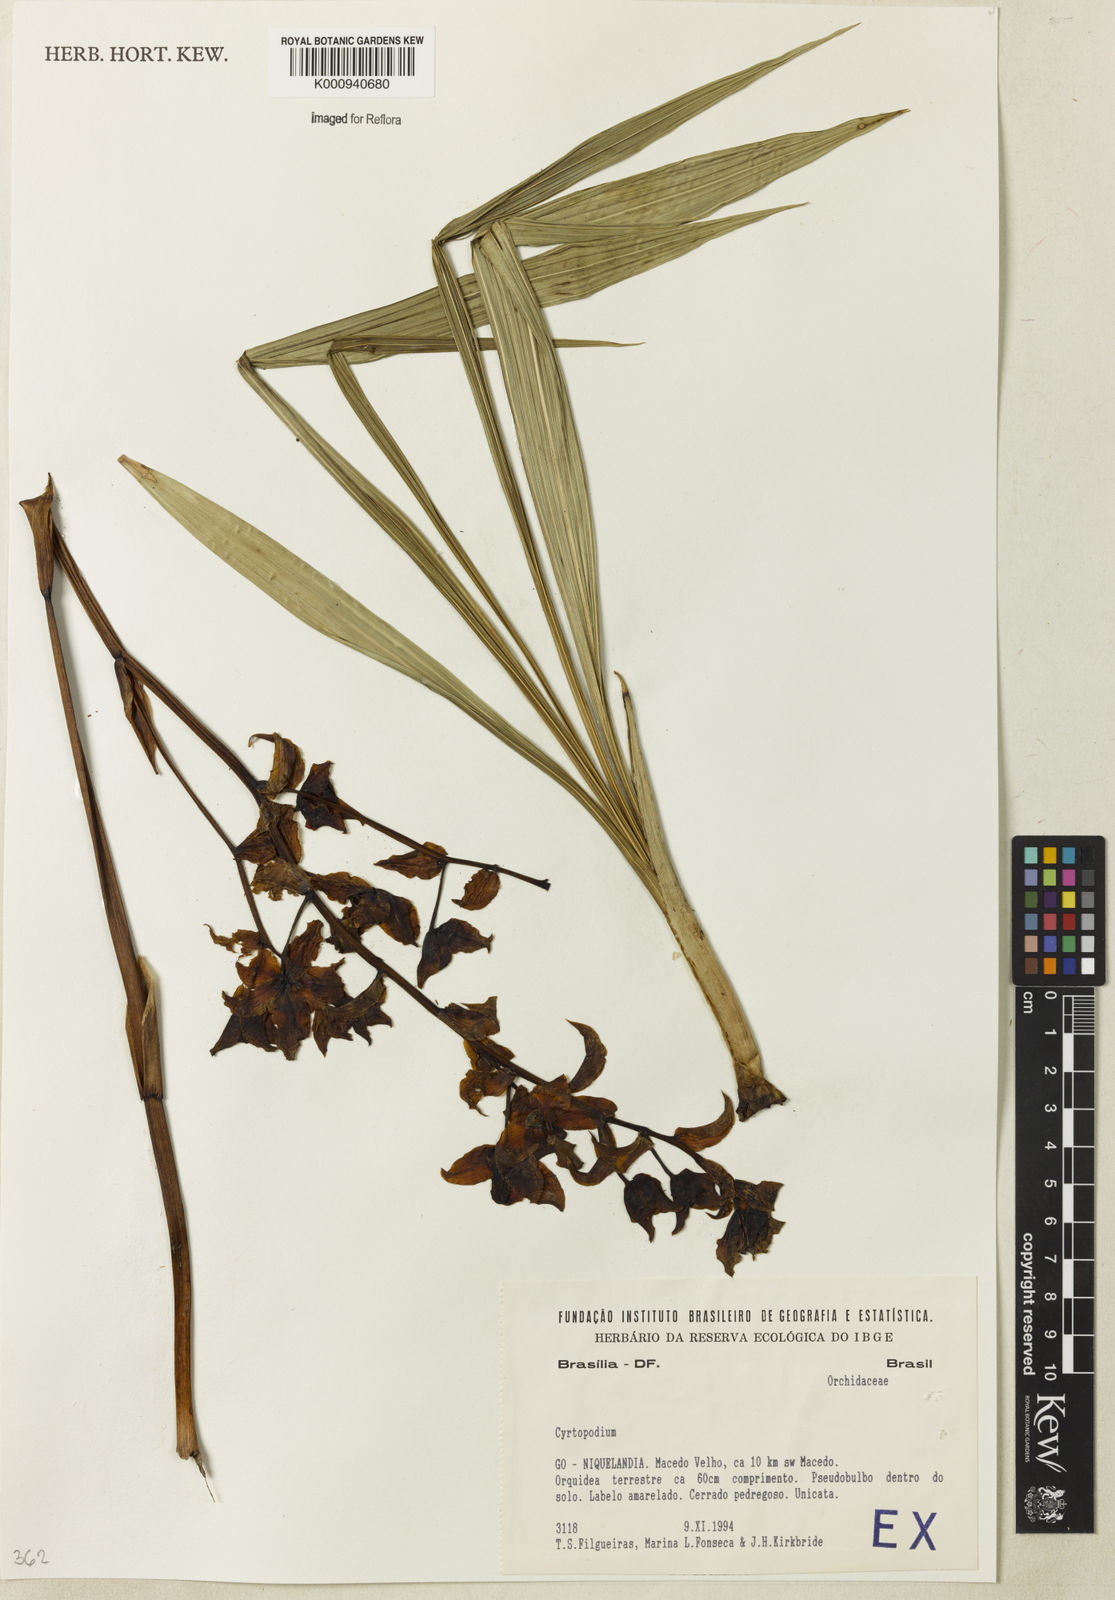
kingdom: Plantae
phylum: Tracheophyta
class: Liliopsida
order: Asparagales
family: Orchidaceae
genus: Cyrtopodium
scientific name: Cyrtopodium
